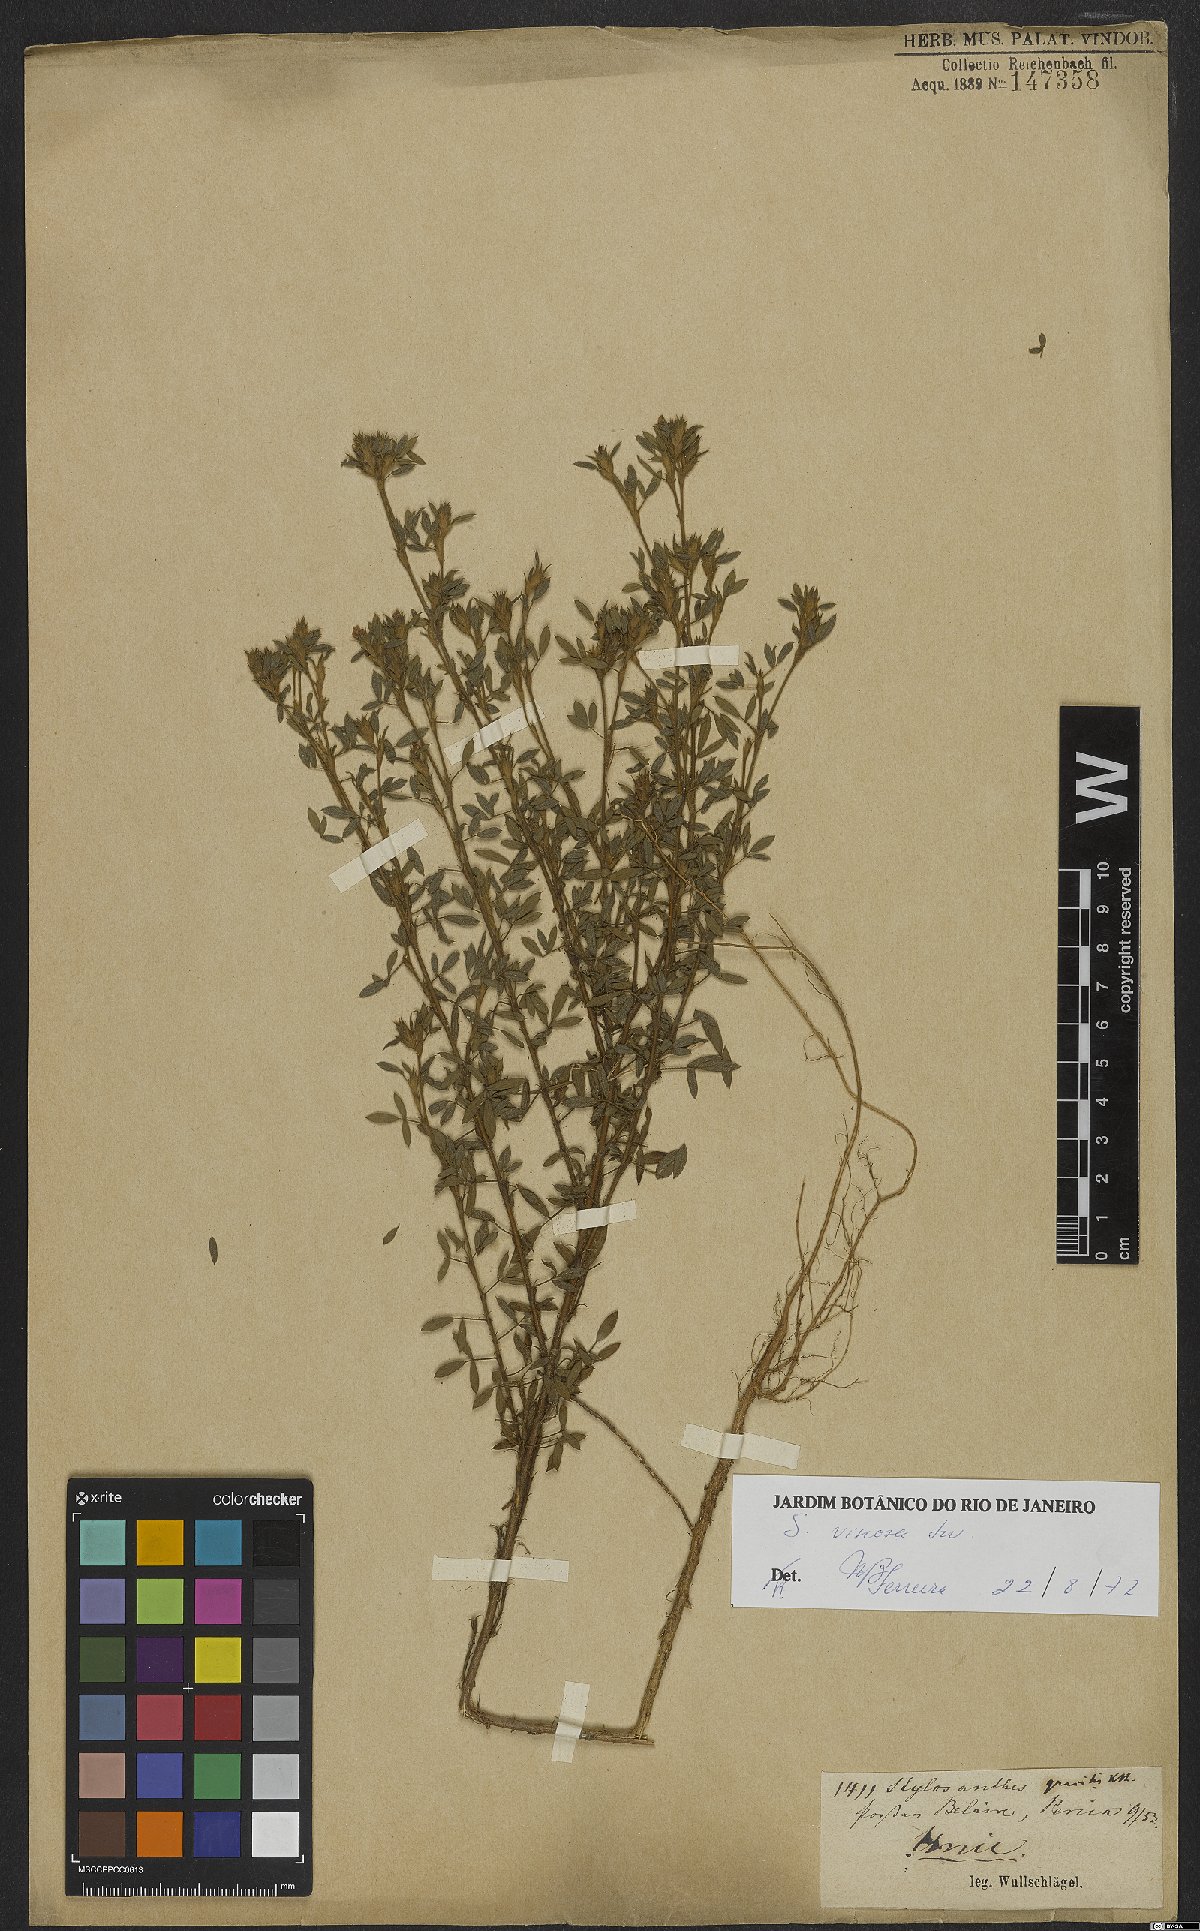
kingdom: Plantae
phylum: Tracheophyta
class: Magnoliopsida
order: Fabales
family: Fabaceae
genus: Stylosanthes
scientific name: Stylosanthes viscosa
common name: Viscid pencil-flower
